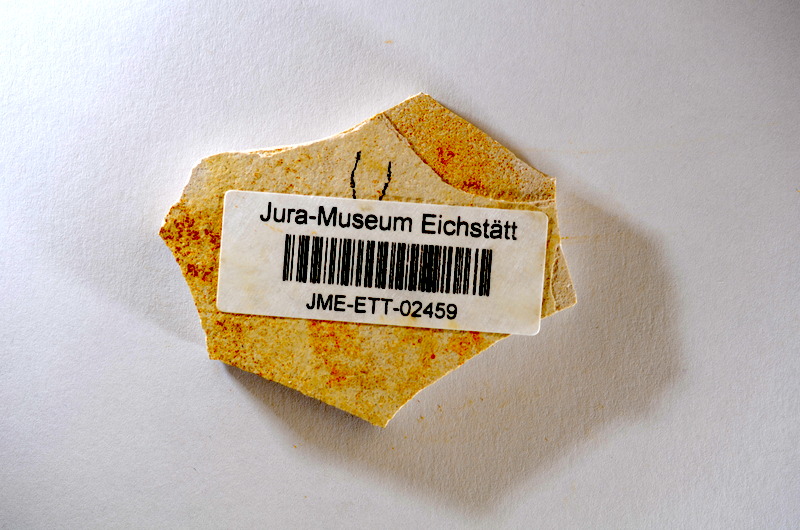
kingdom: Animalia
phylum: Chordata
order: Salmoniformes
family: Orthogonikleithridae
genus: Orthogonikleithrus
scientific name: Orthogonikleithrus hoelli
